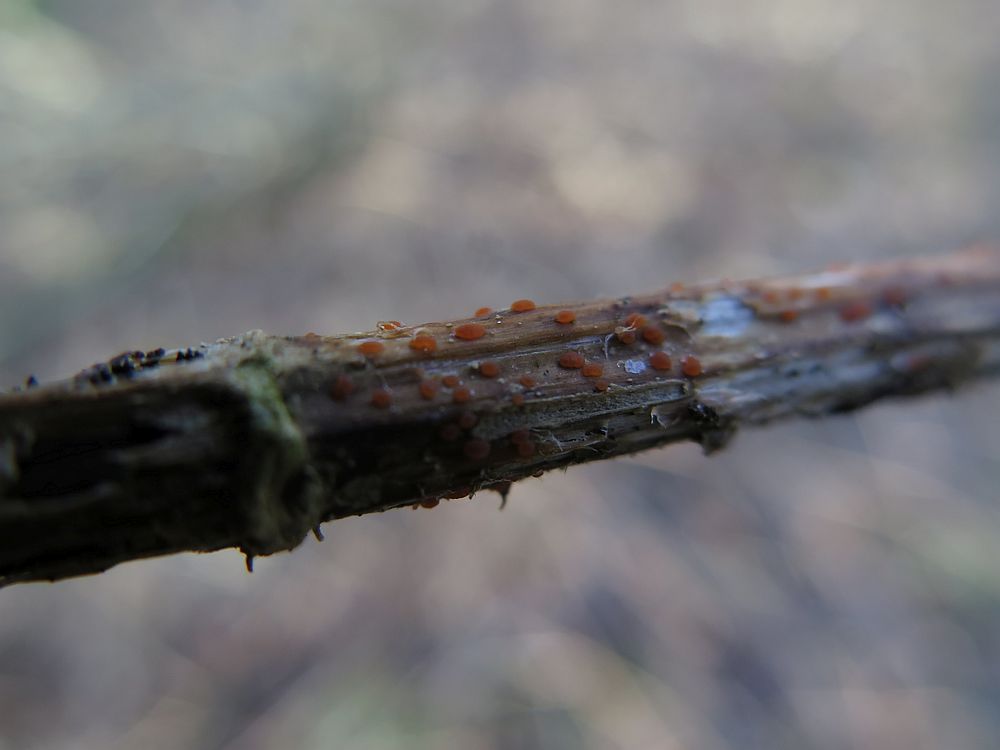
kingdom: Fungi
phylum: Ascomycota
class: Leotiomycetes
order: Helotiales
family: Calloriaceae
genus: Calloria
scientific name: Calloria urticae
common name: nælde-orangeskive
